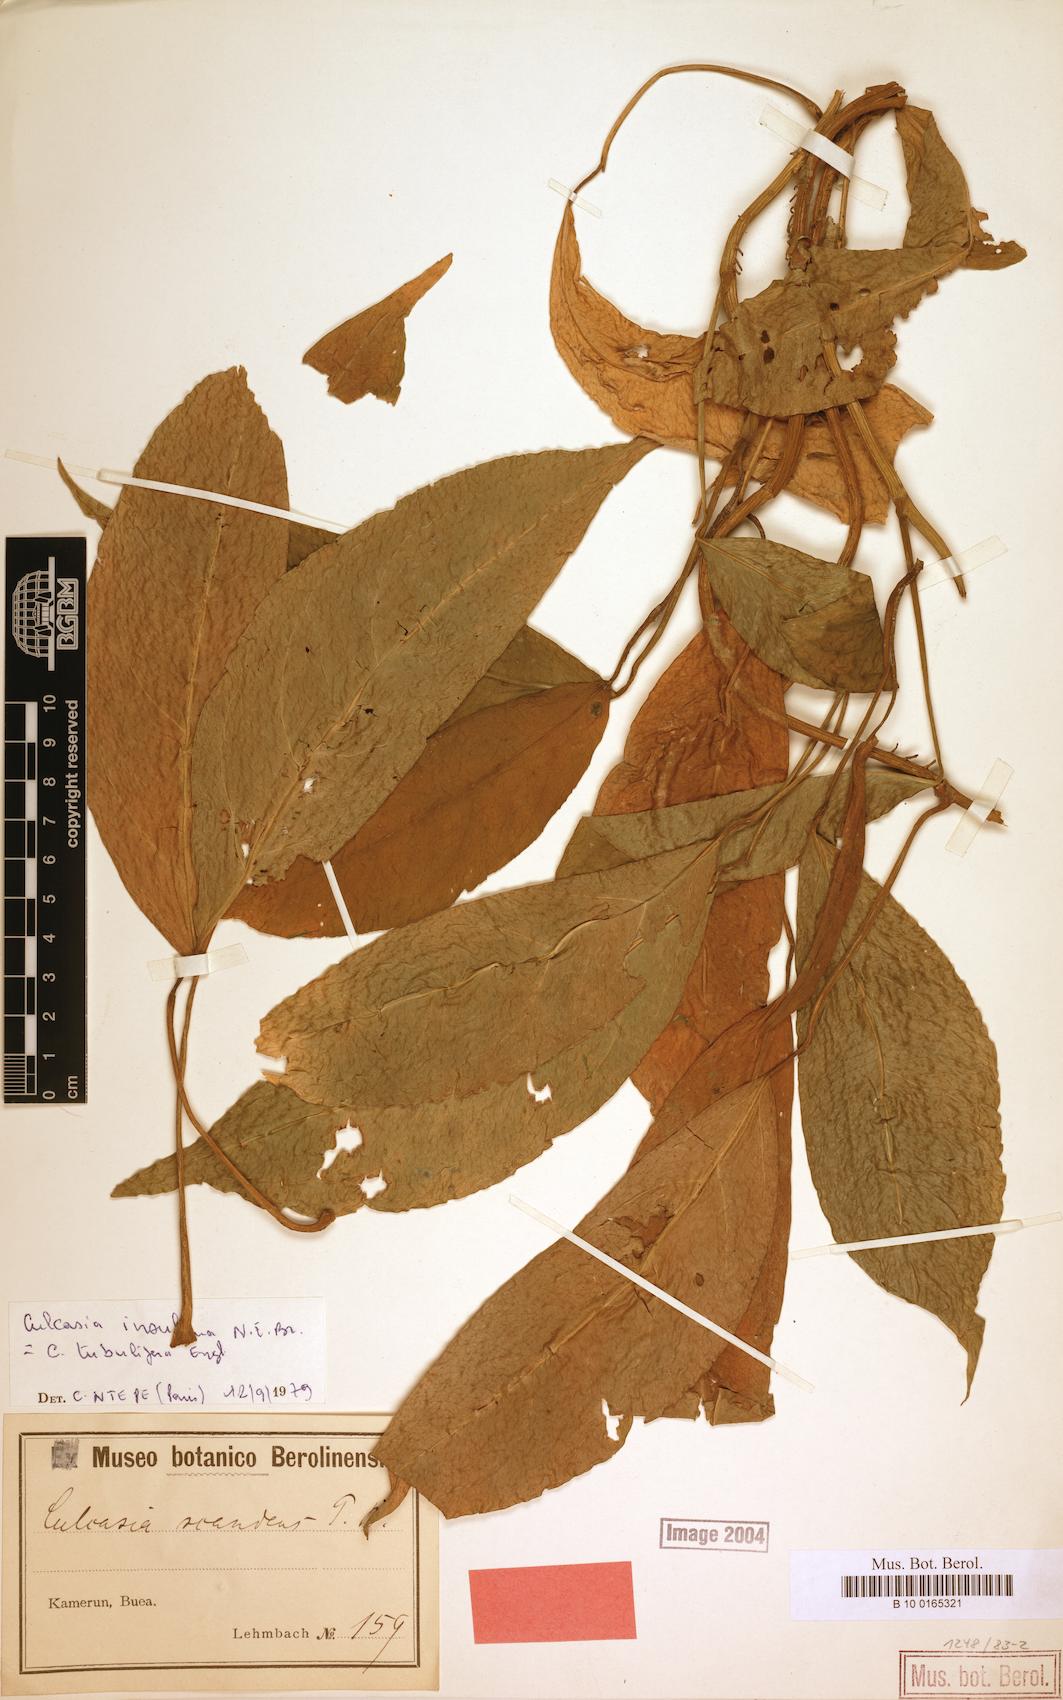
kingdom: Plantae
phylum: Tracheophyta
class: Liliopsida
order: Alismatales
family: Araceae
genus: Culcasia
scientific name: Culcasia insulana
